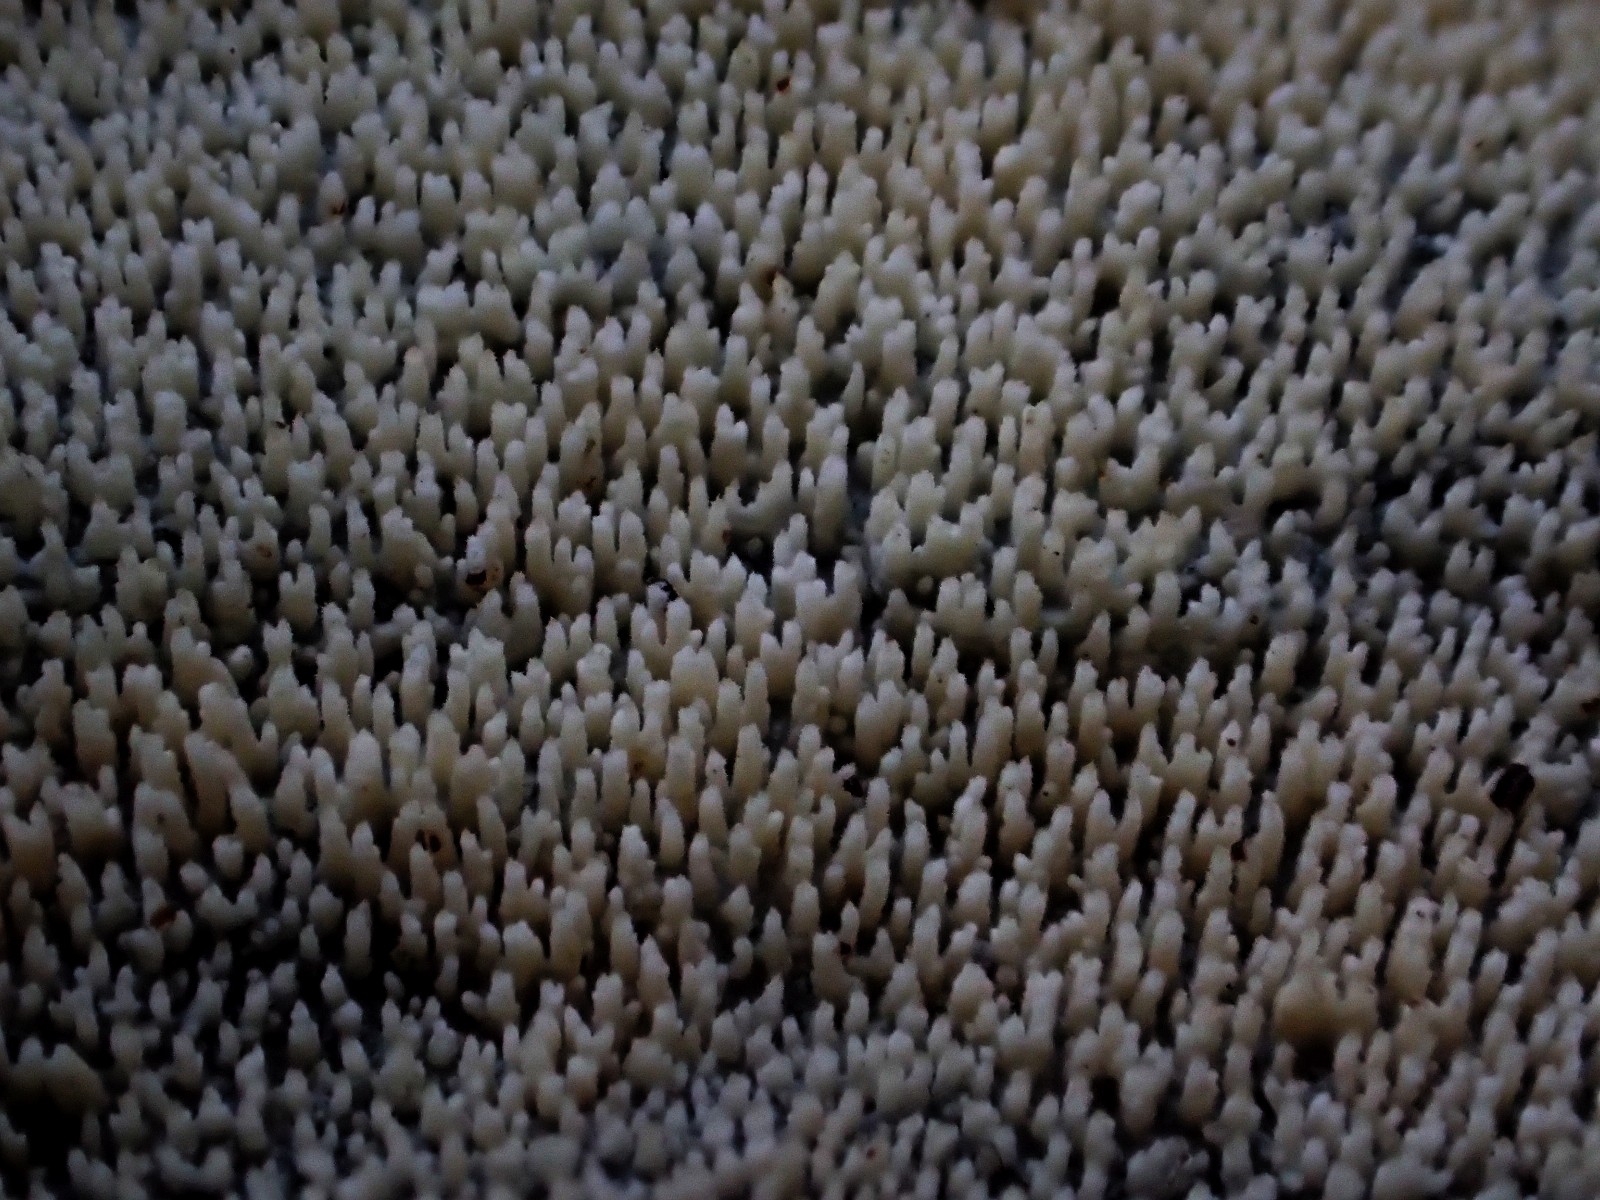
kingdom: Fungi
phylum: Basidiomycota
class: Agaricomycetes
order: Corticiales
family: Corticiaceae
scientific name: Corticiaceae
